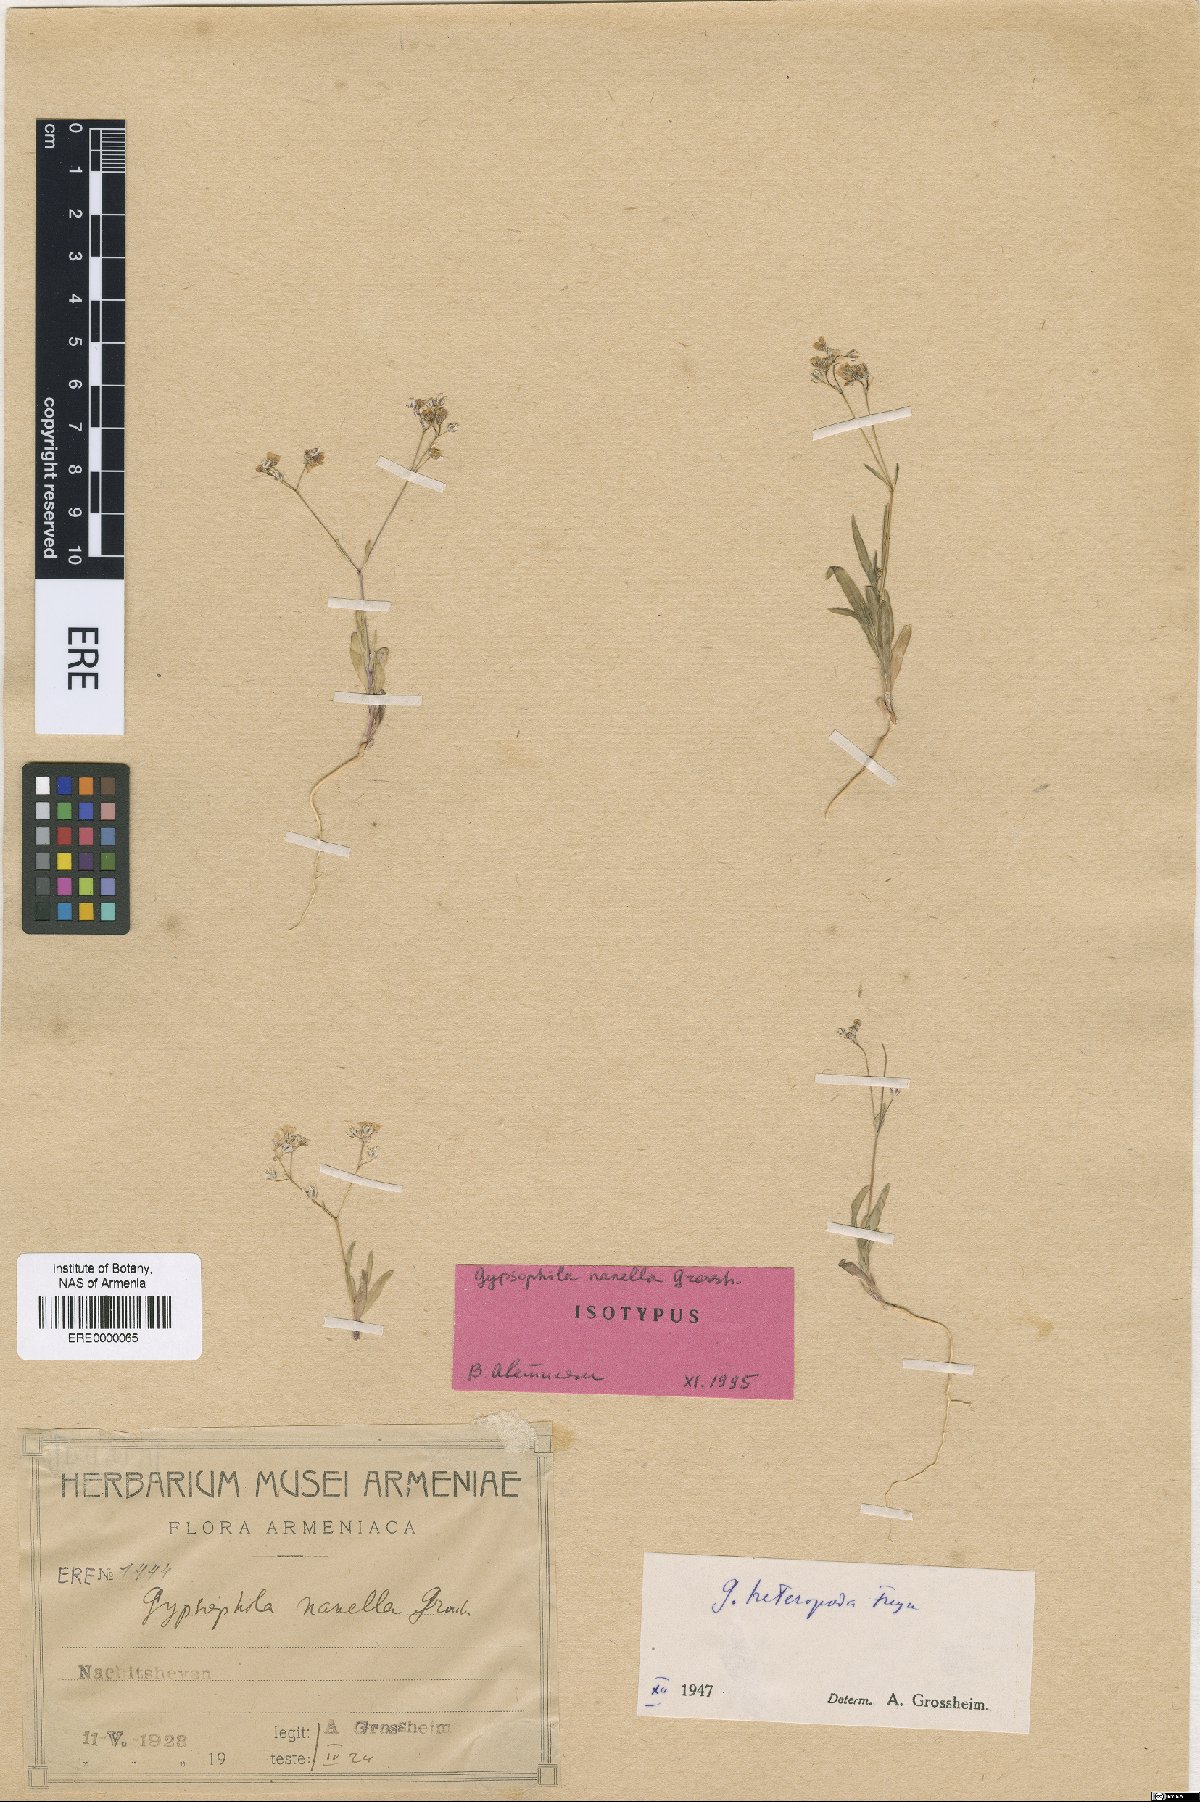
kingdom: Plantae
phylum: Tracheophyta
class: Magnoliopsida
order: Caryophyllales
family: Caryophyllaceae
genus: Gypsophila
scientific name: Gypsophila heteropoda
